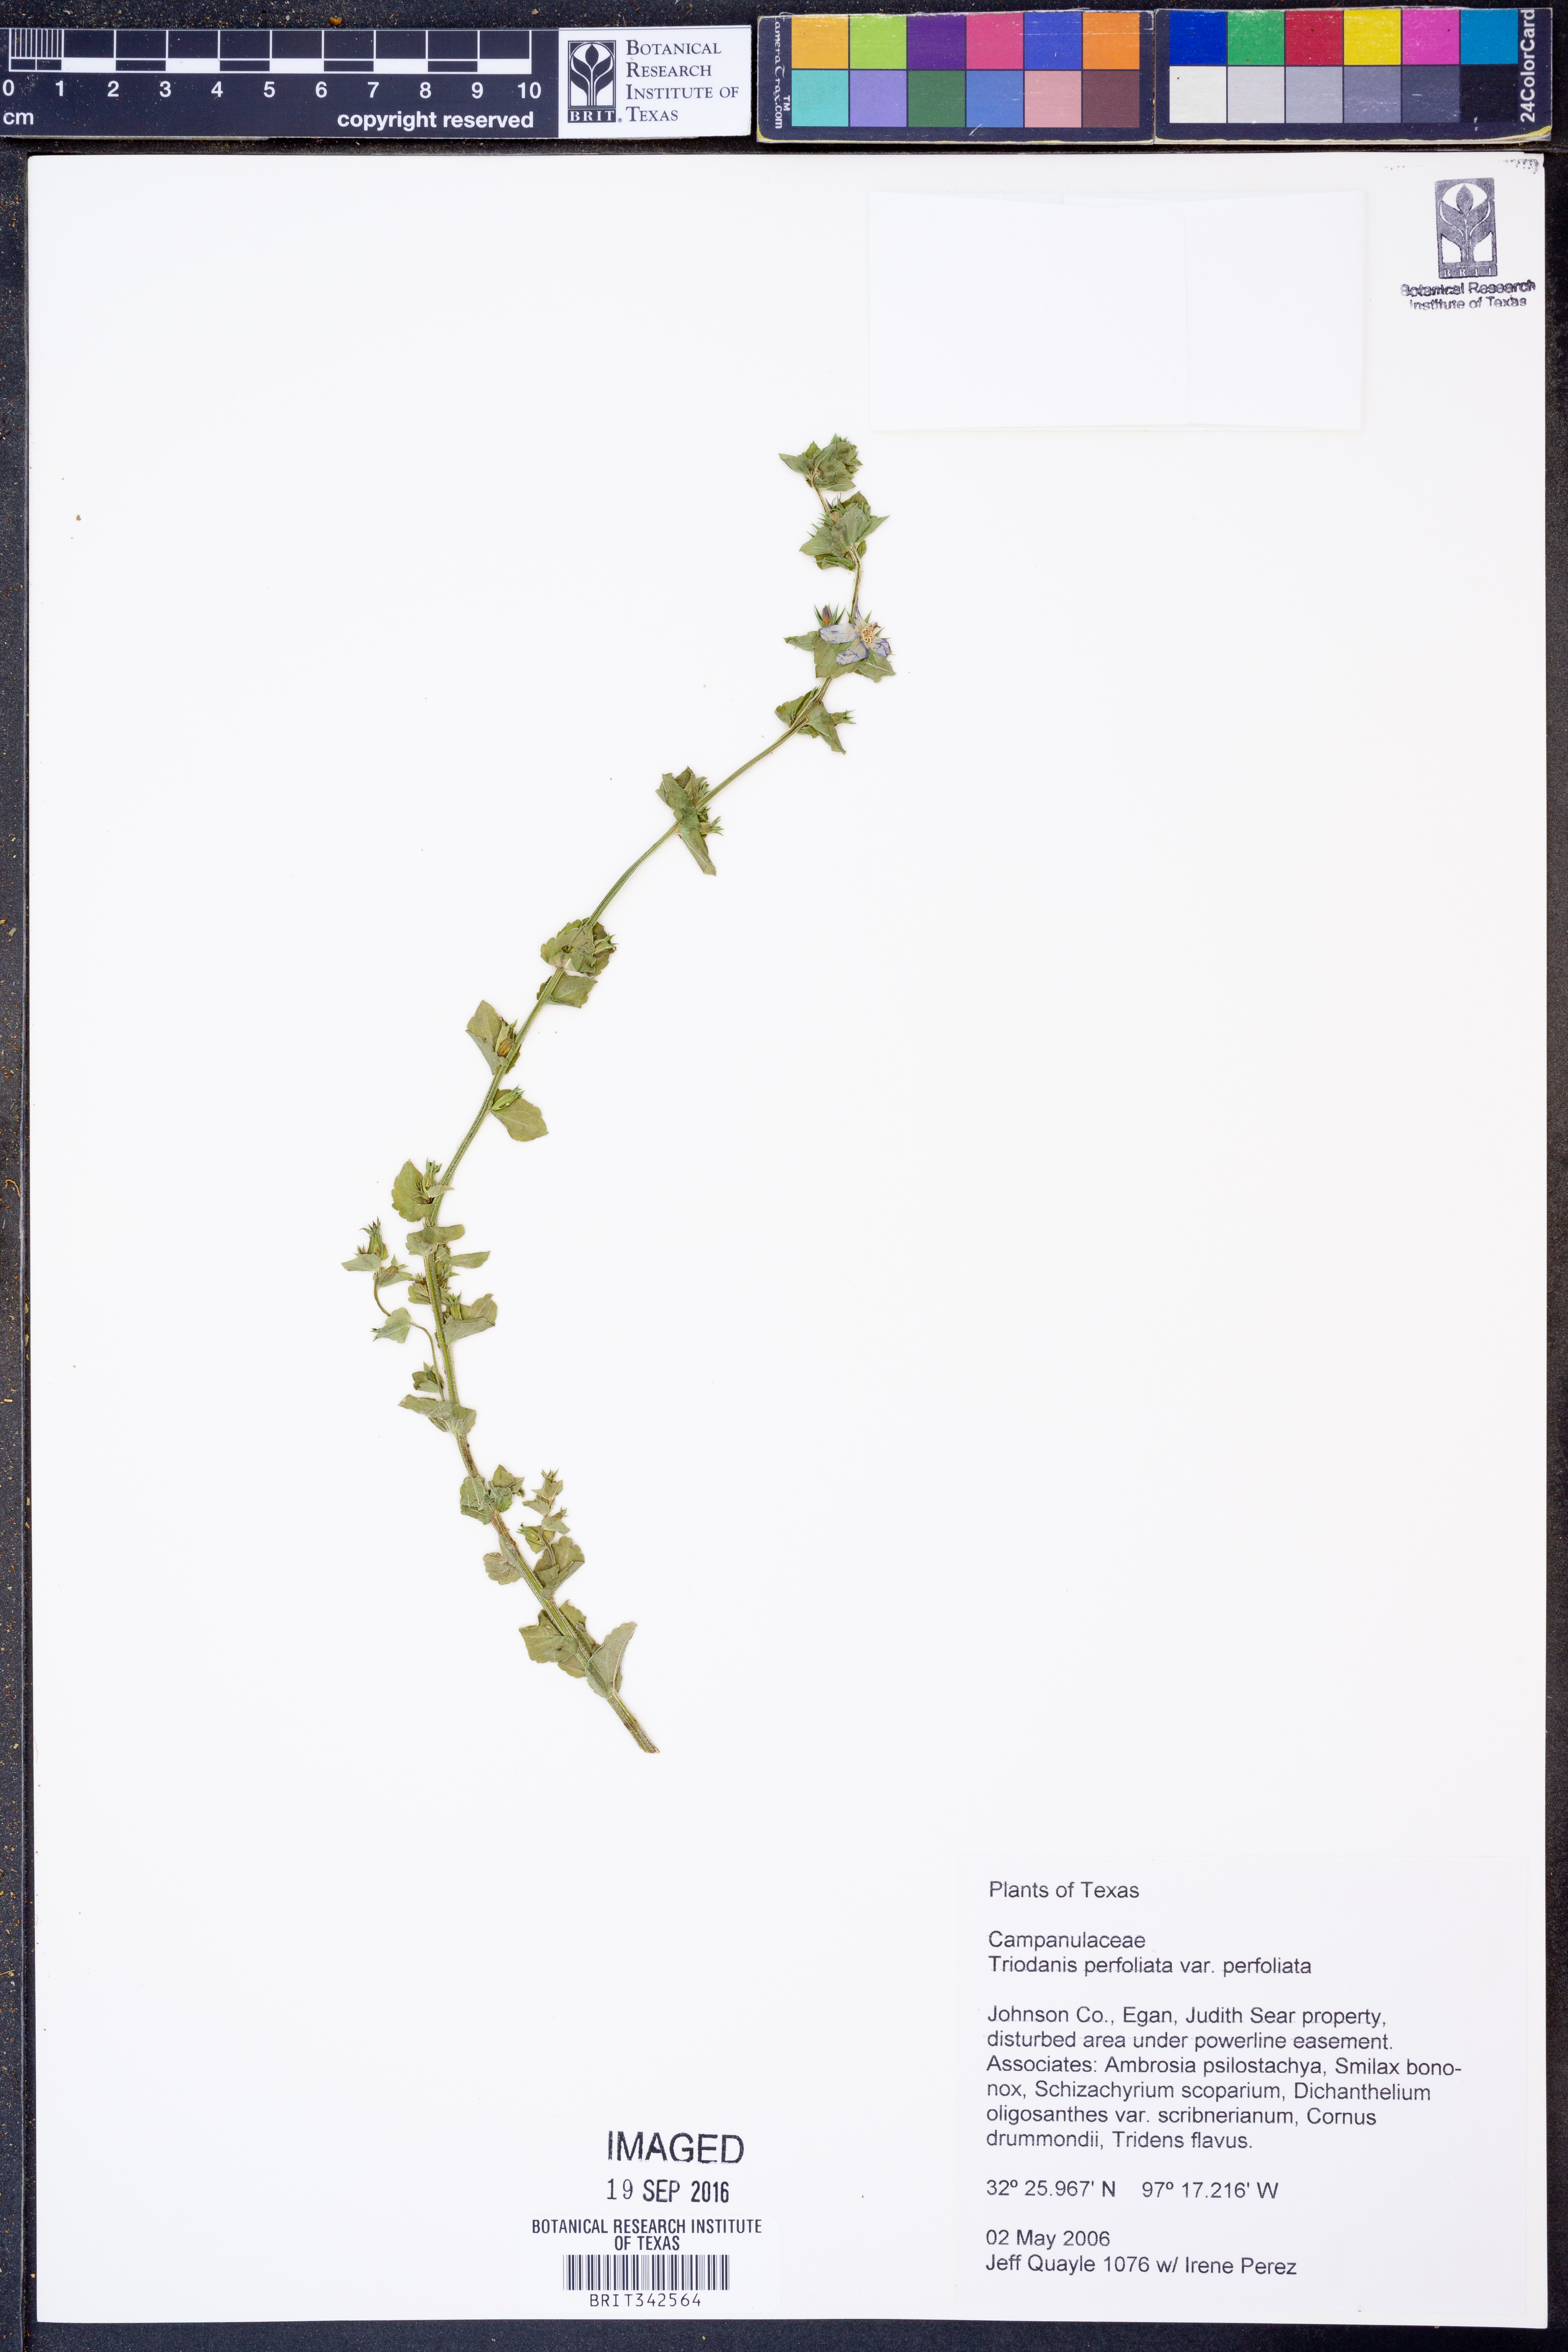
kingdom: Plantae
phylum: Tracheophyta
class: Magnoliopsida
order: Asterales
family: Campanulaceae
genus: Triodanis
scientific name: Triodanis perfoliata
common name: Clasping venus' looking-glass
